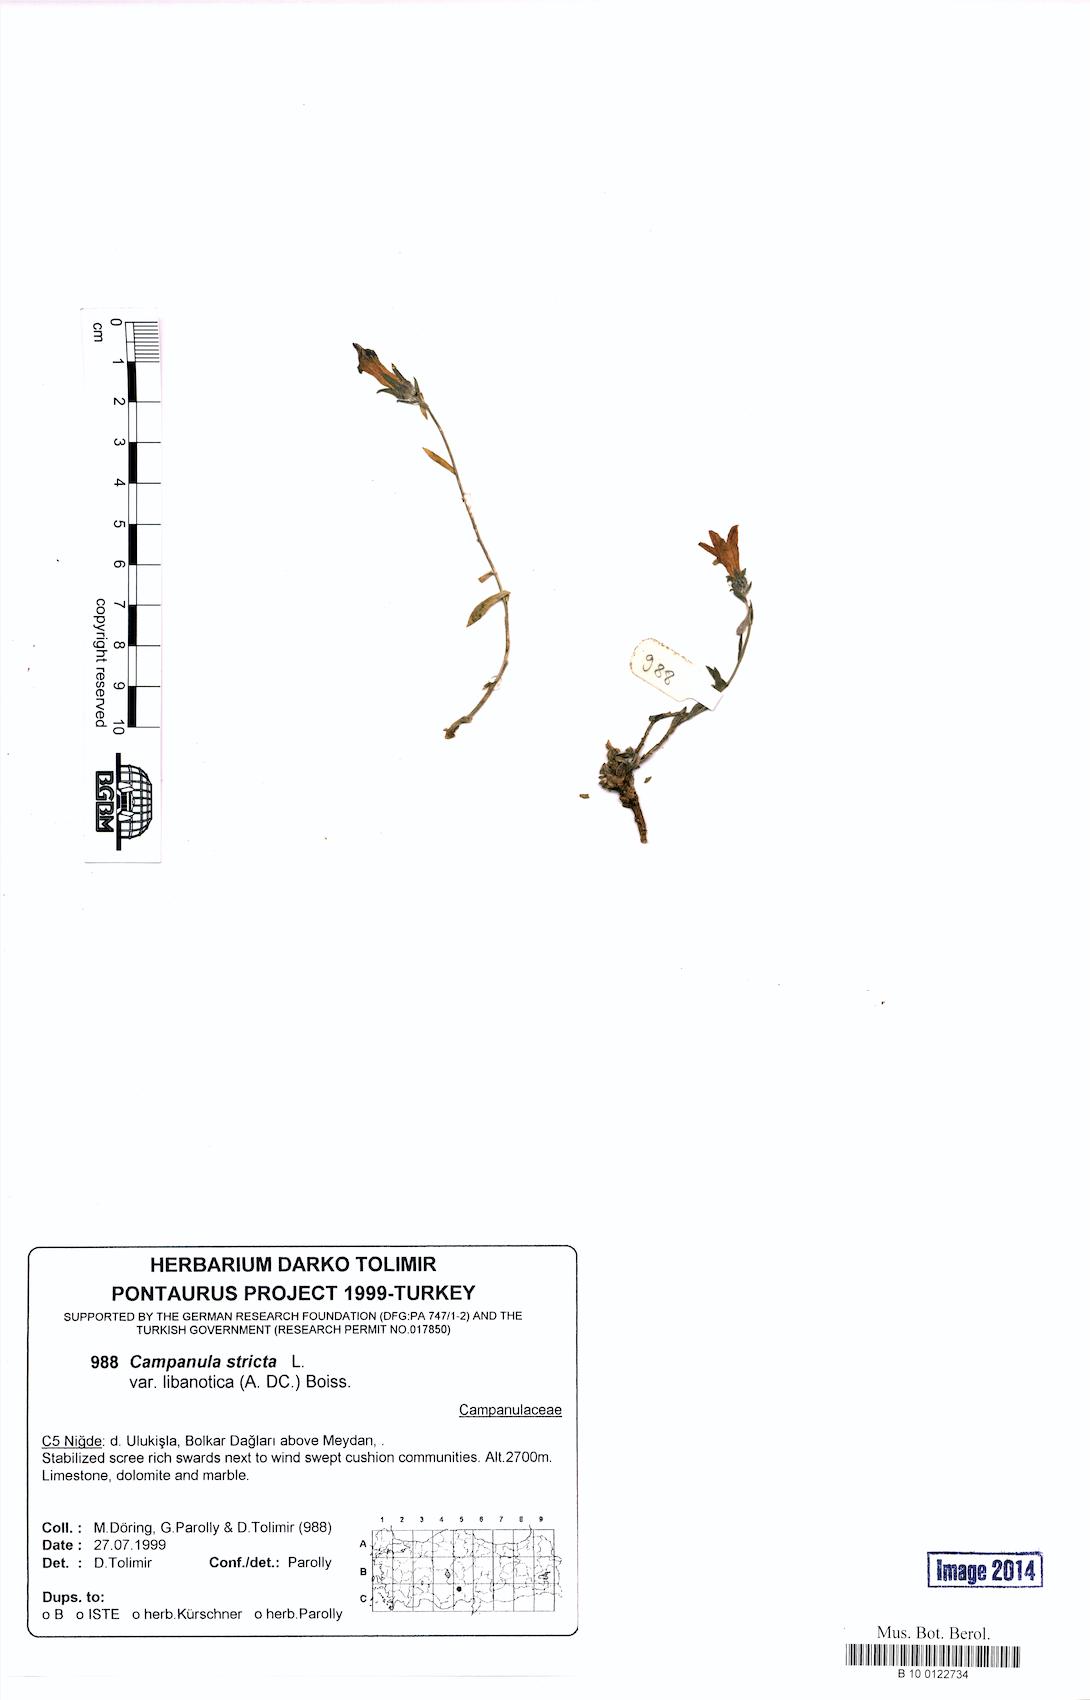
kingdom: Plantae
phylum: Tracheophyta
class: Magnoliopsida
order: Asterales
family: Campanulaceae
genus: Campanula
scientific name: Campanula stricta
